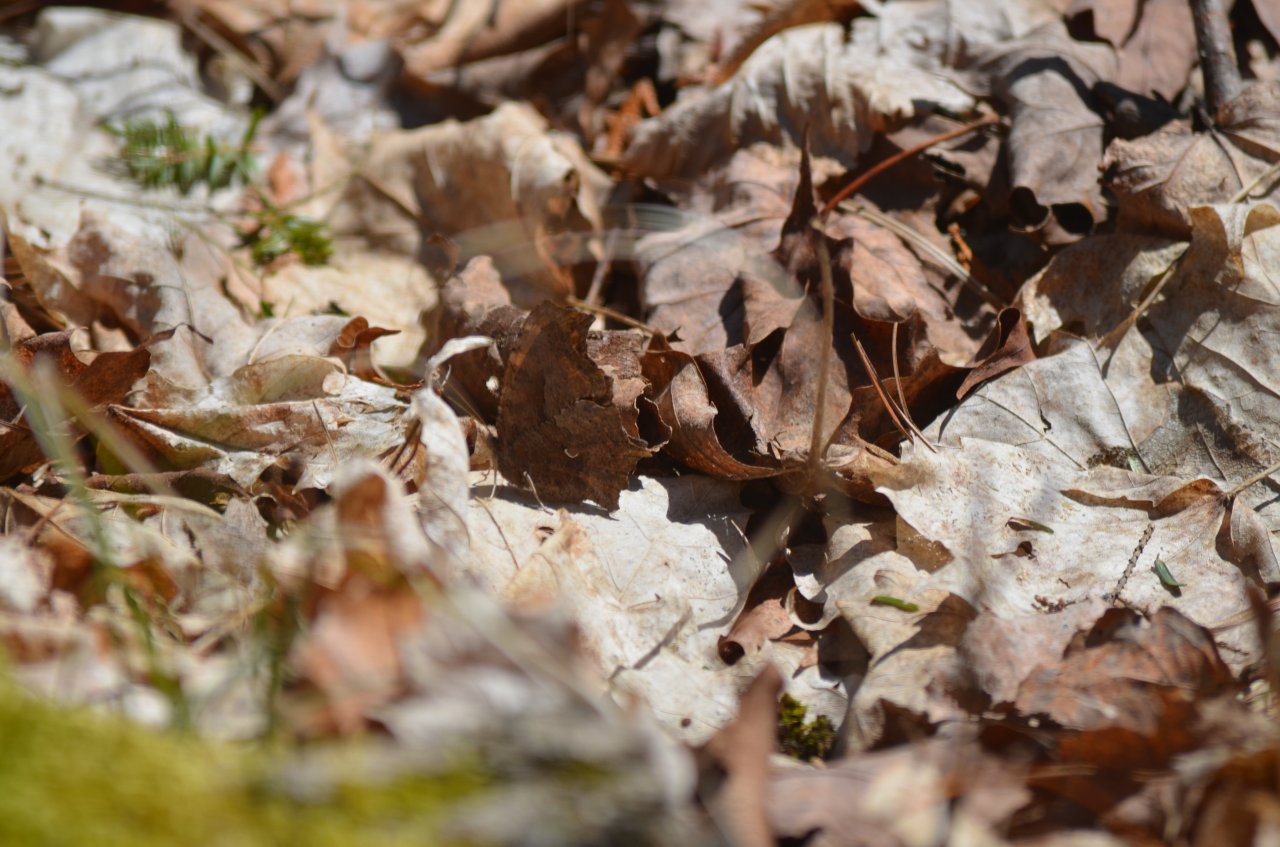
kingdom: Animalia
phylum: Arthropoda
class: Insecta
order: Lepidoptera
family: Nymphalidae
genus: Polygonia
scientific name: Polygonia comma
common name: Eastern Comma
